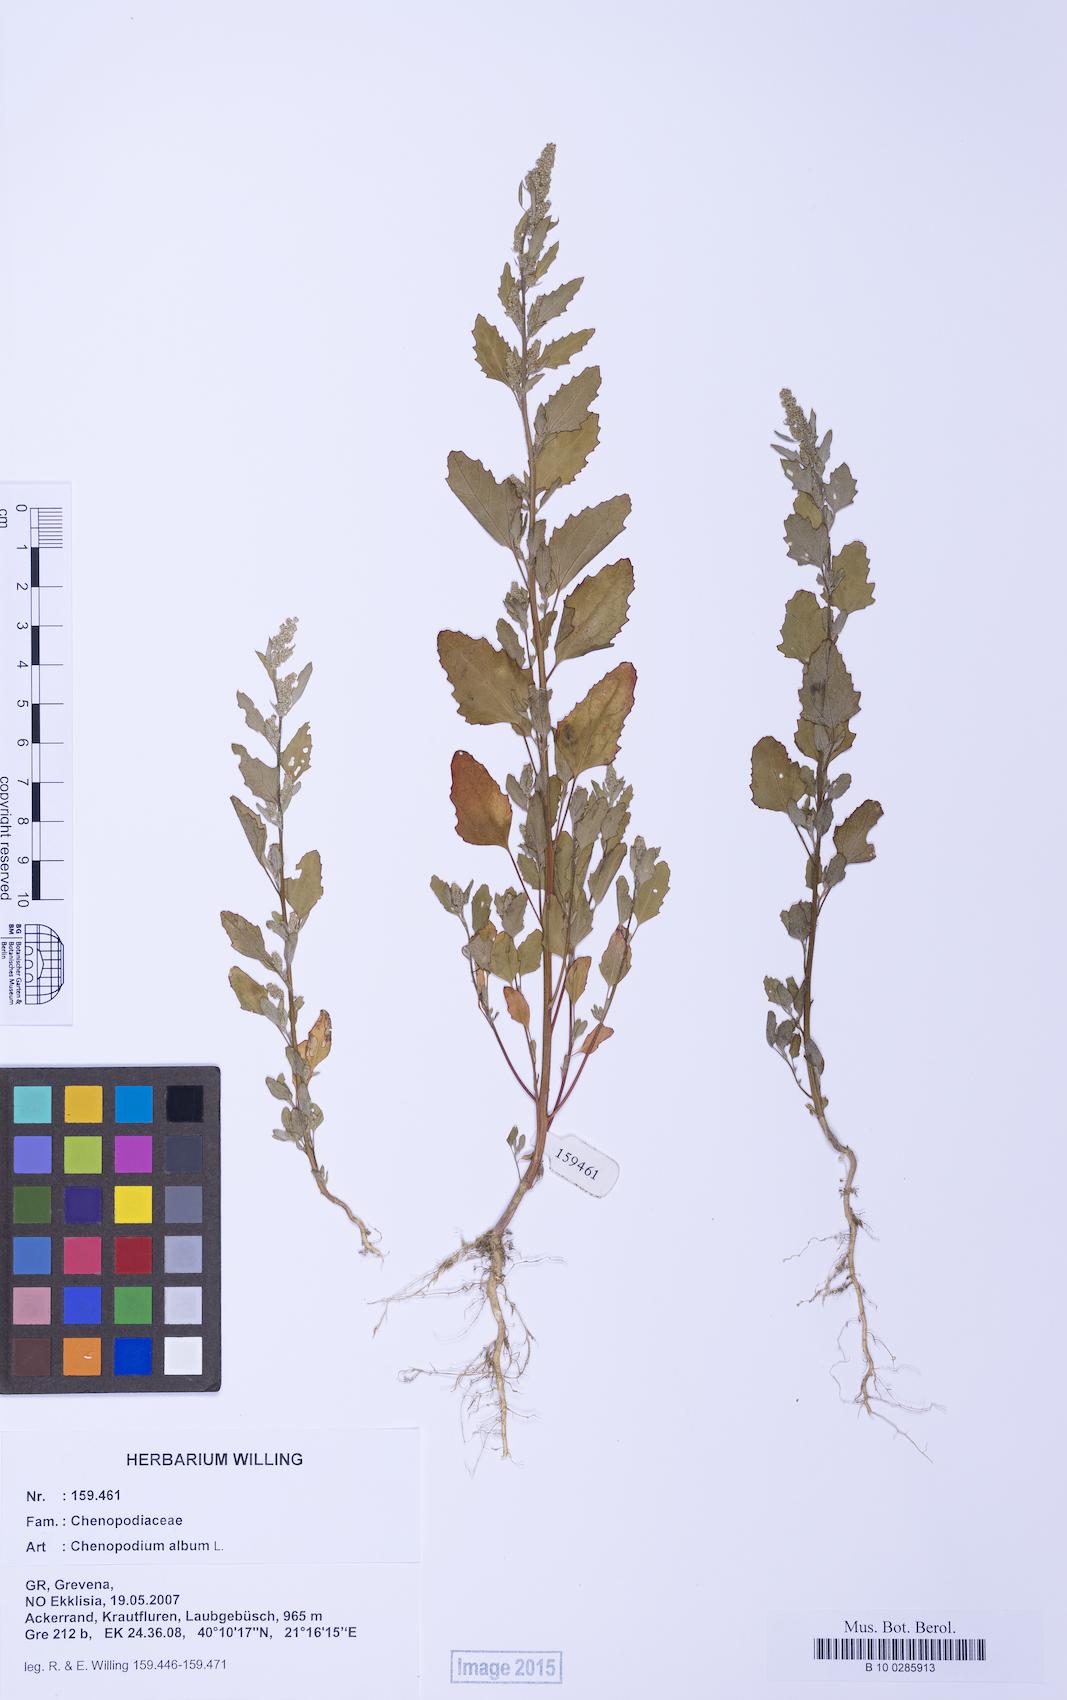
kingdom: Plantae
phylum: Tracheophyta
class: Magnoliopsida
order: Caryophyllales
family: Amaranthaceae
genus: Chenopodium
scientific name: Chenopodium album
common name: Fat-hen
